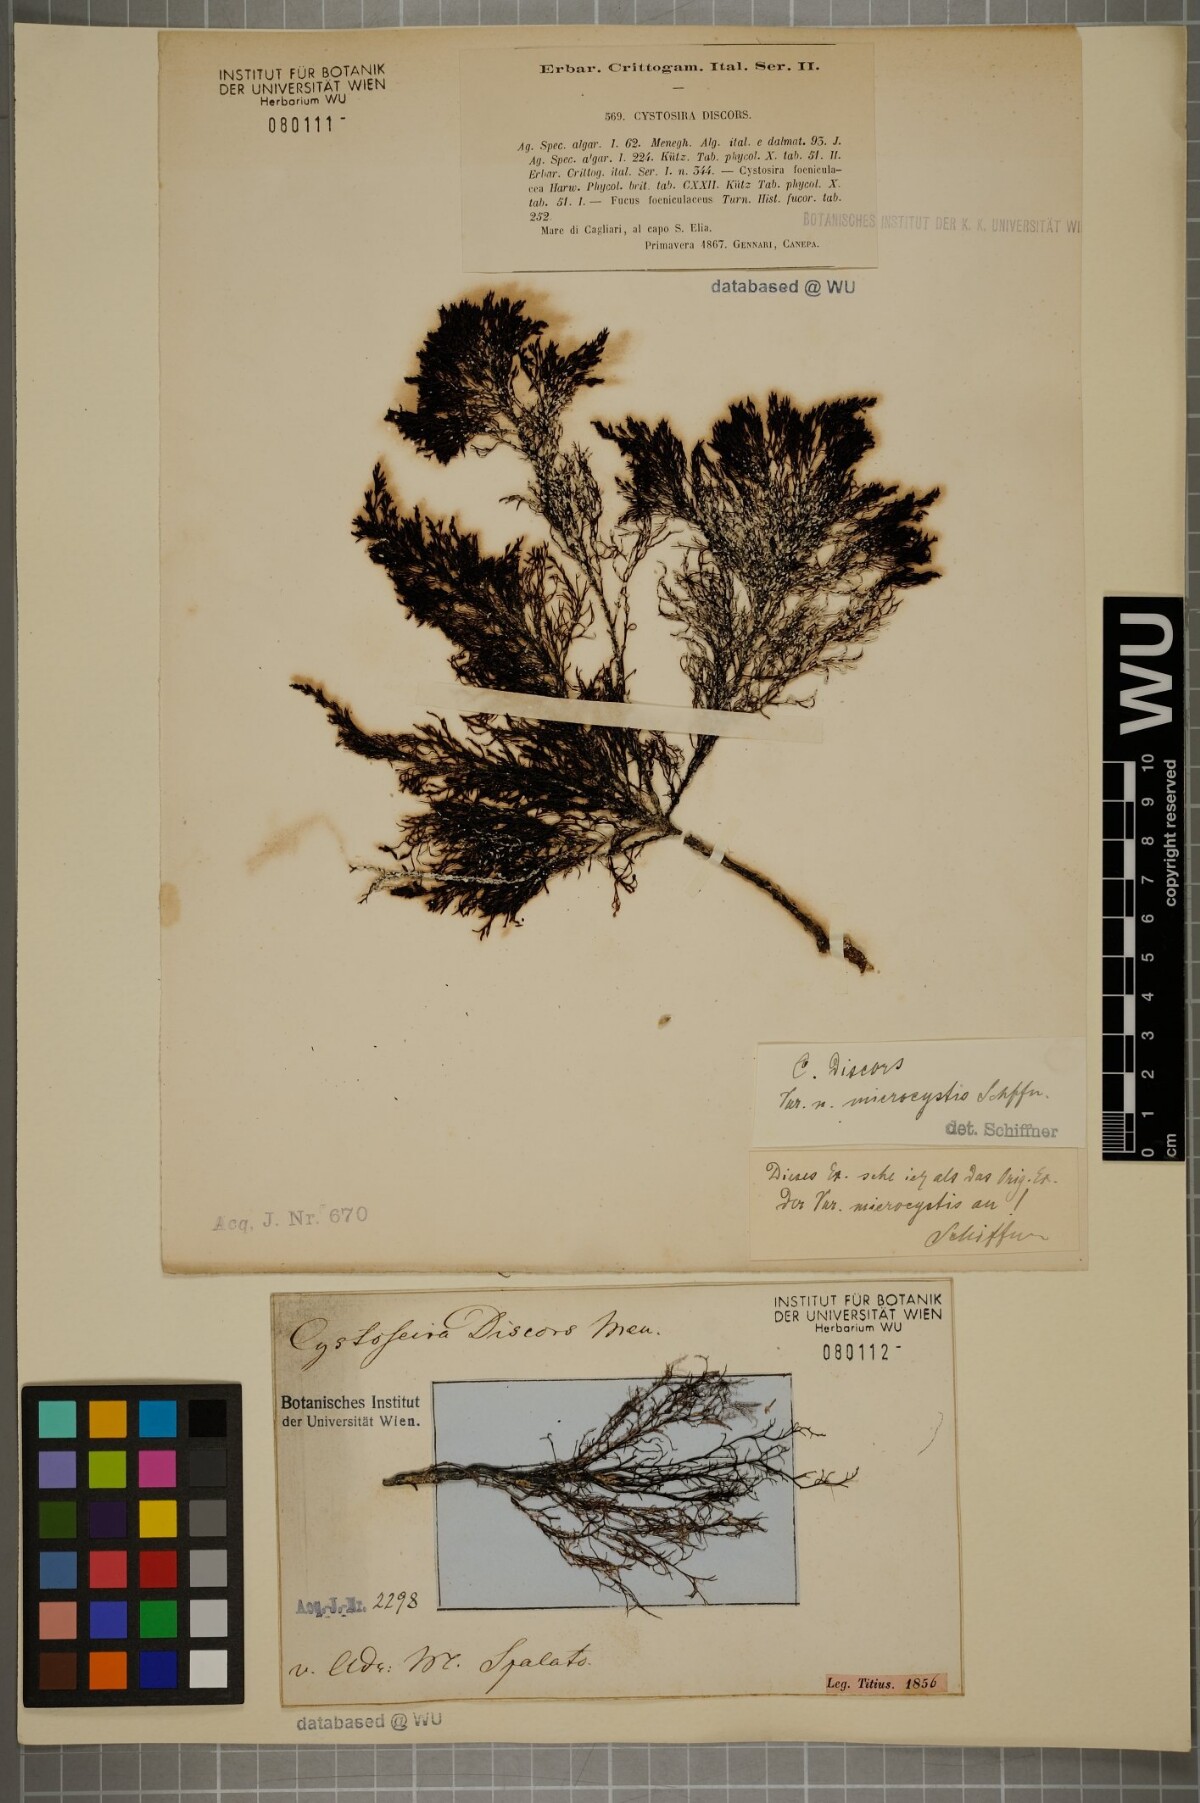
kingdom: Chromista
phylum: Ochrophyta
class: Phaeophyceae
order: Fucales
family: Sargassaceae
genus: Cystoseira
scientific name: Cystoseira foeniculacea
